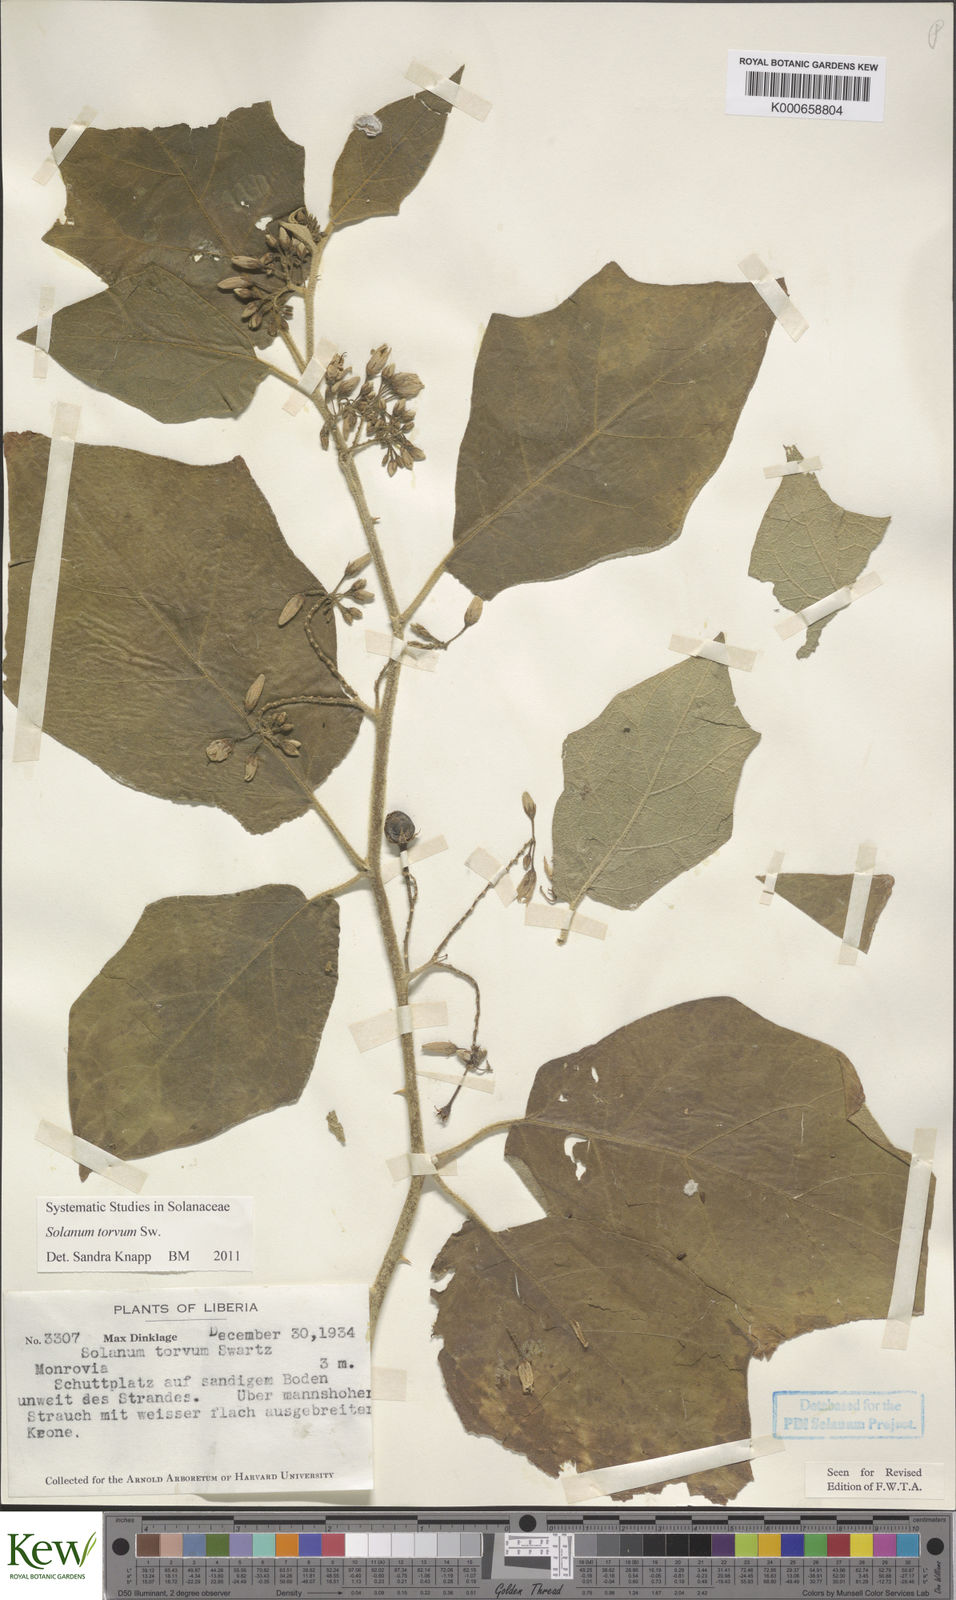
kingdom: Plantae
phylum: Tracheophyta
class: Magnoliopsida
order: Solanales
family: Solanaceae
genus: Solanum
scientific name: Solanum torvum
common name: Turkey berry
